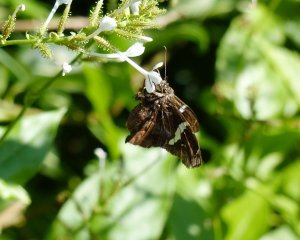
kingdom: Animalia
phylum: Arthropoda
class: Insecta
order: Lepidoptera
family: Hesperiidae
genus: Spathilepia
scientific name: Spathilepia clonius
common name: Falcate Skipper
